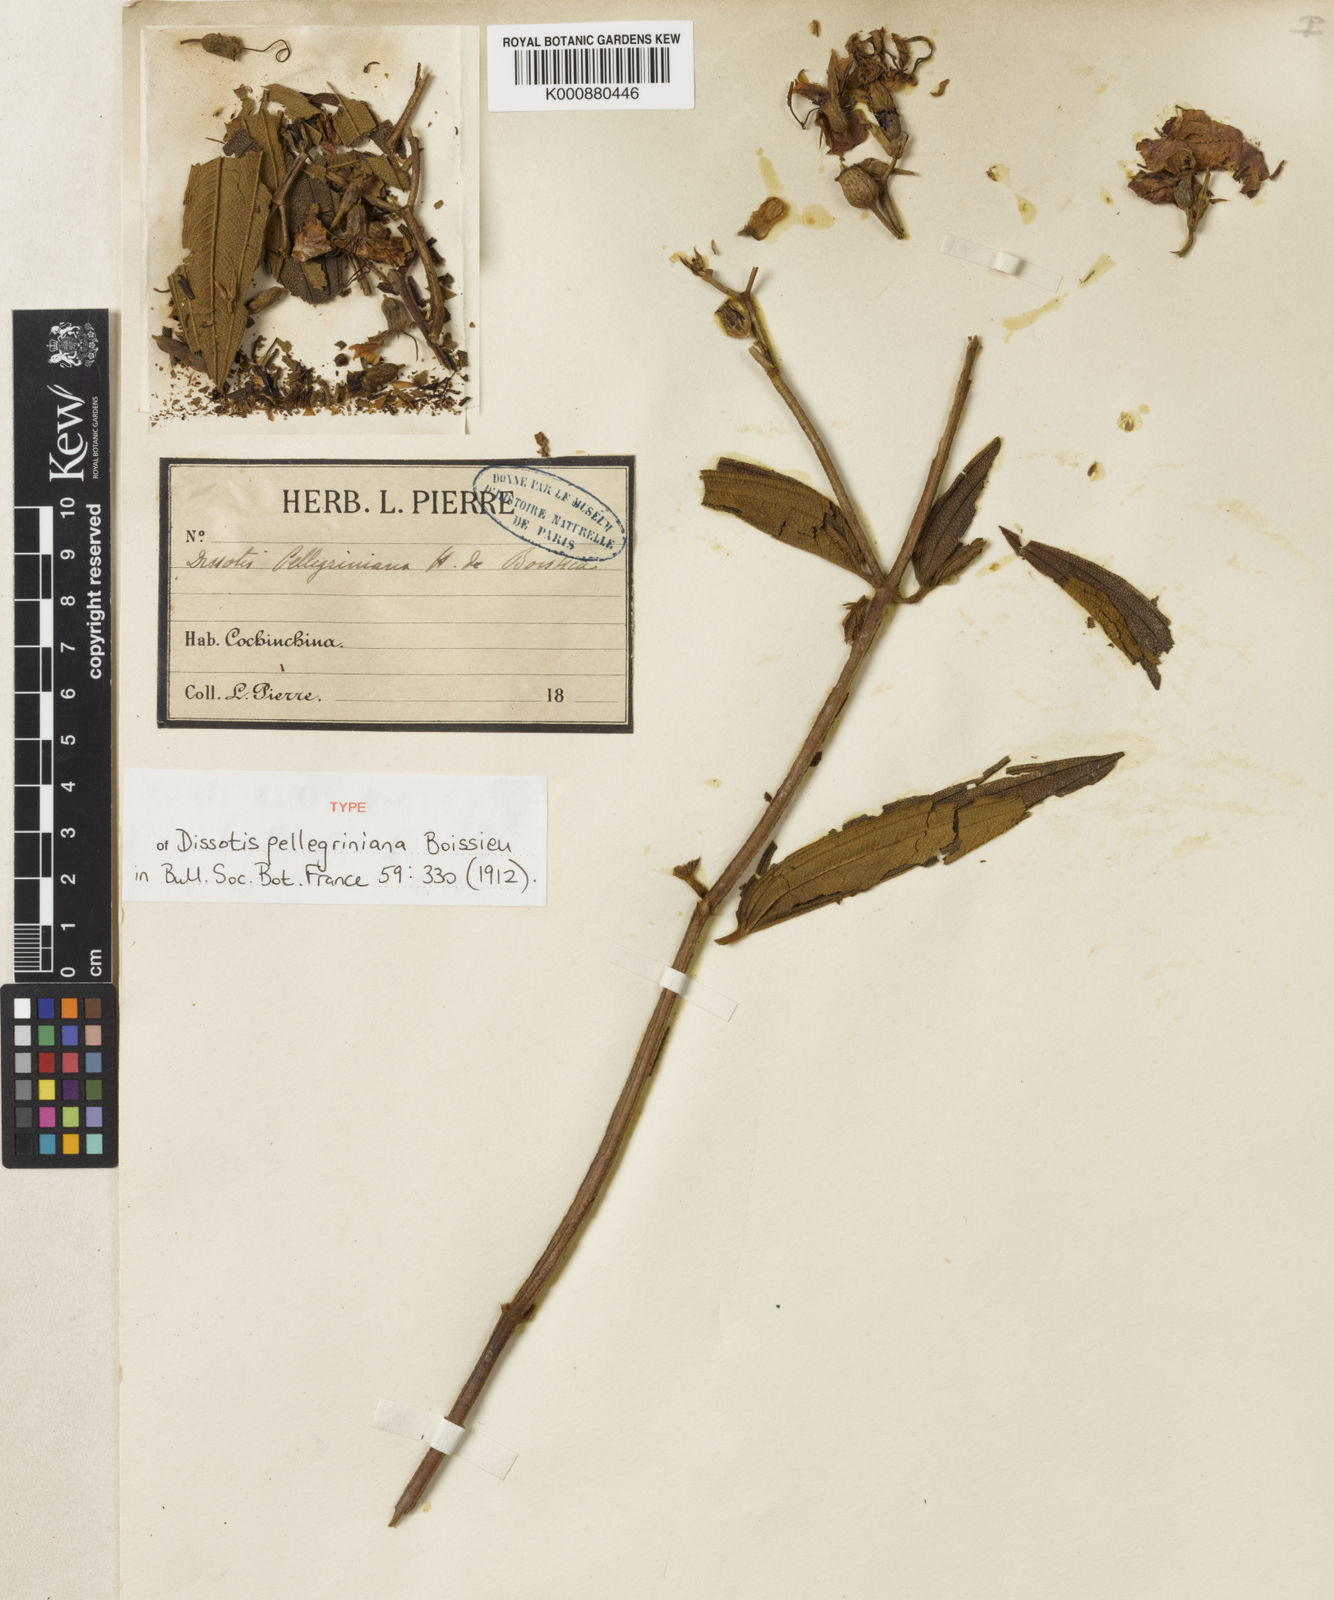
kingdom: Plantae
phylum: Tracheophyta
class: Magnoliopsida
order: Myrtales
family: Melastomataceae
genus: Melastoma
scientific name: Melastoma pellegrinianum
